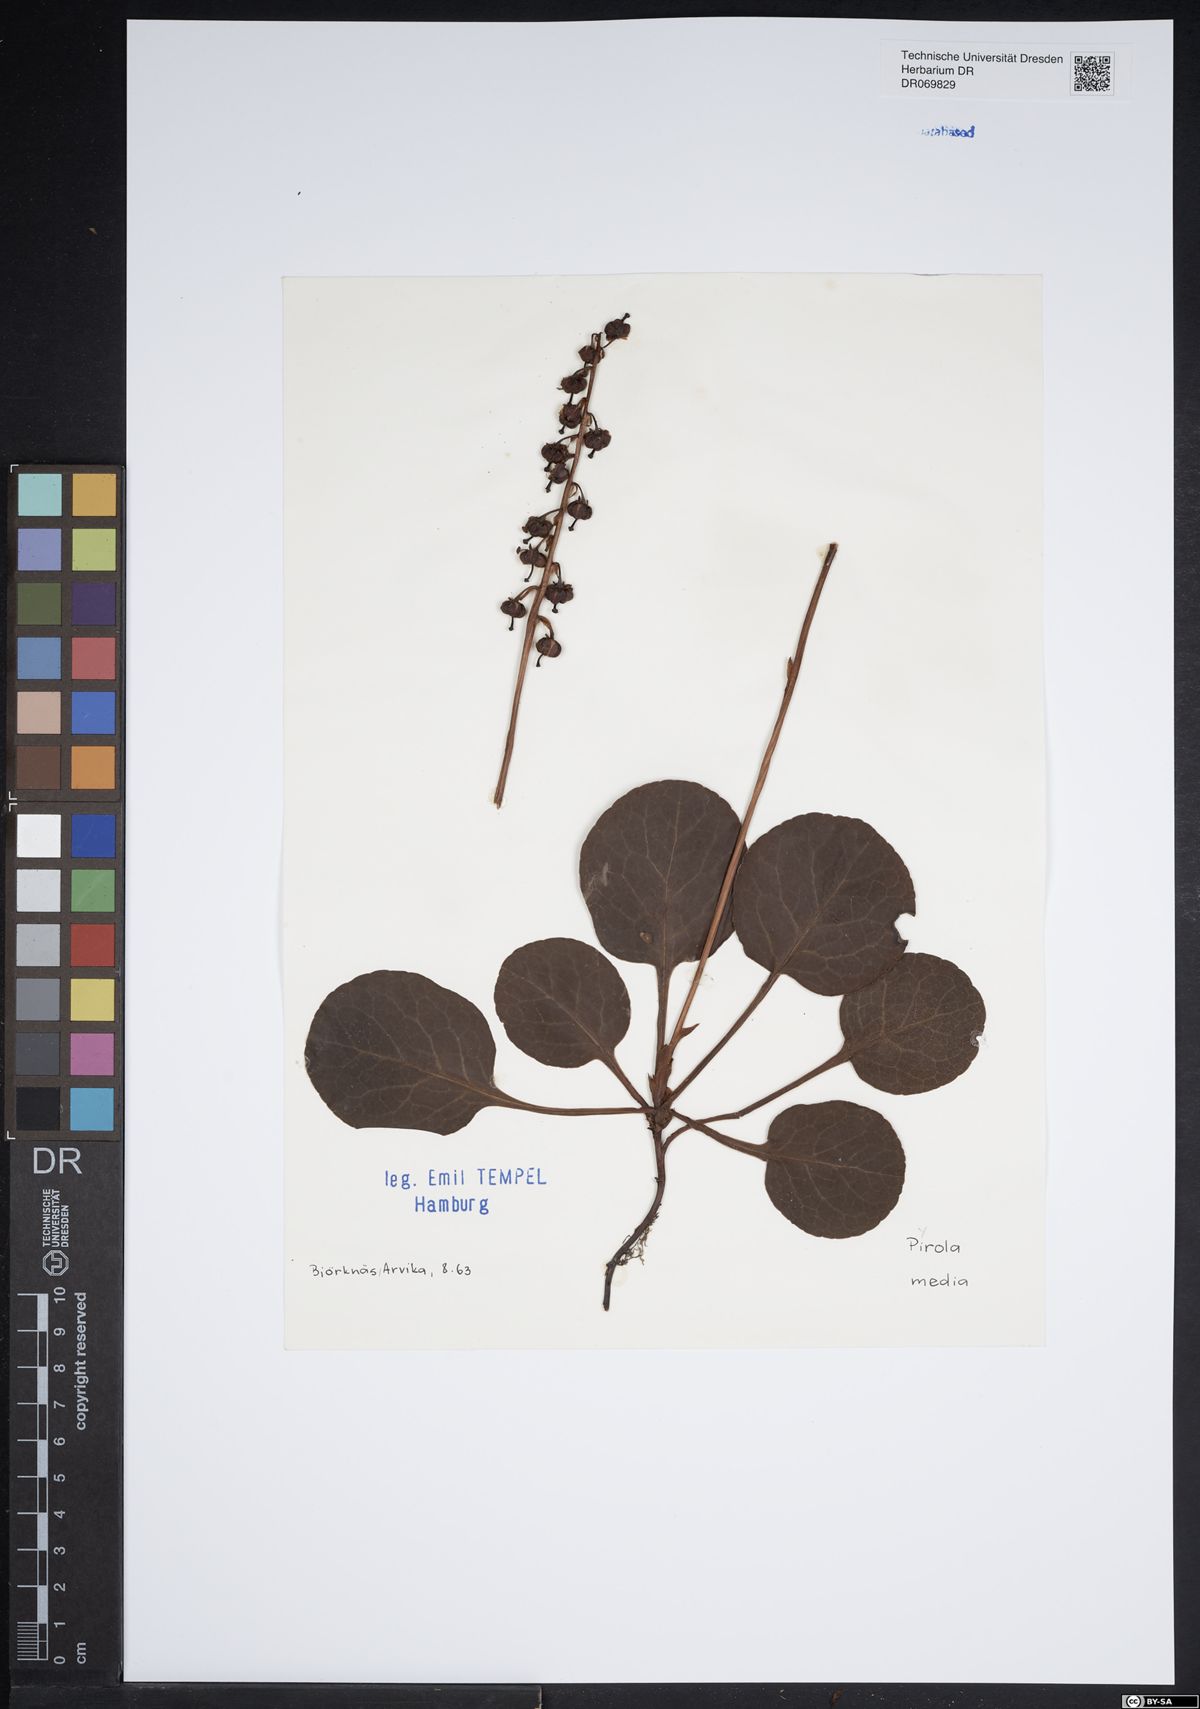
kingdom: Plantae
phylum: Tracheophyta
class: Magnoliopsida
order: Ericales
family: Ericaceae
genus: Pyrola
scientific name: Pyrola media
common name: Intermediate wintergreen
